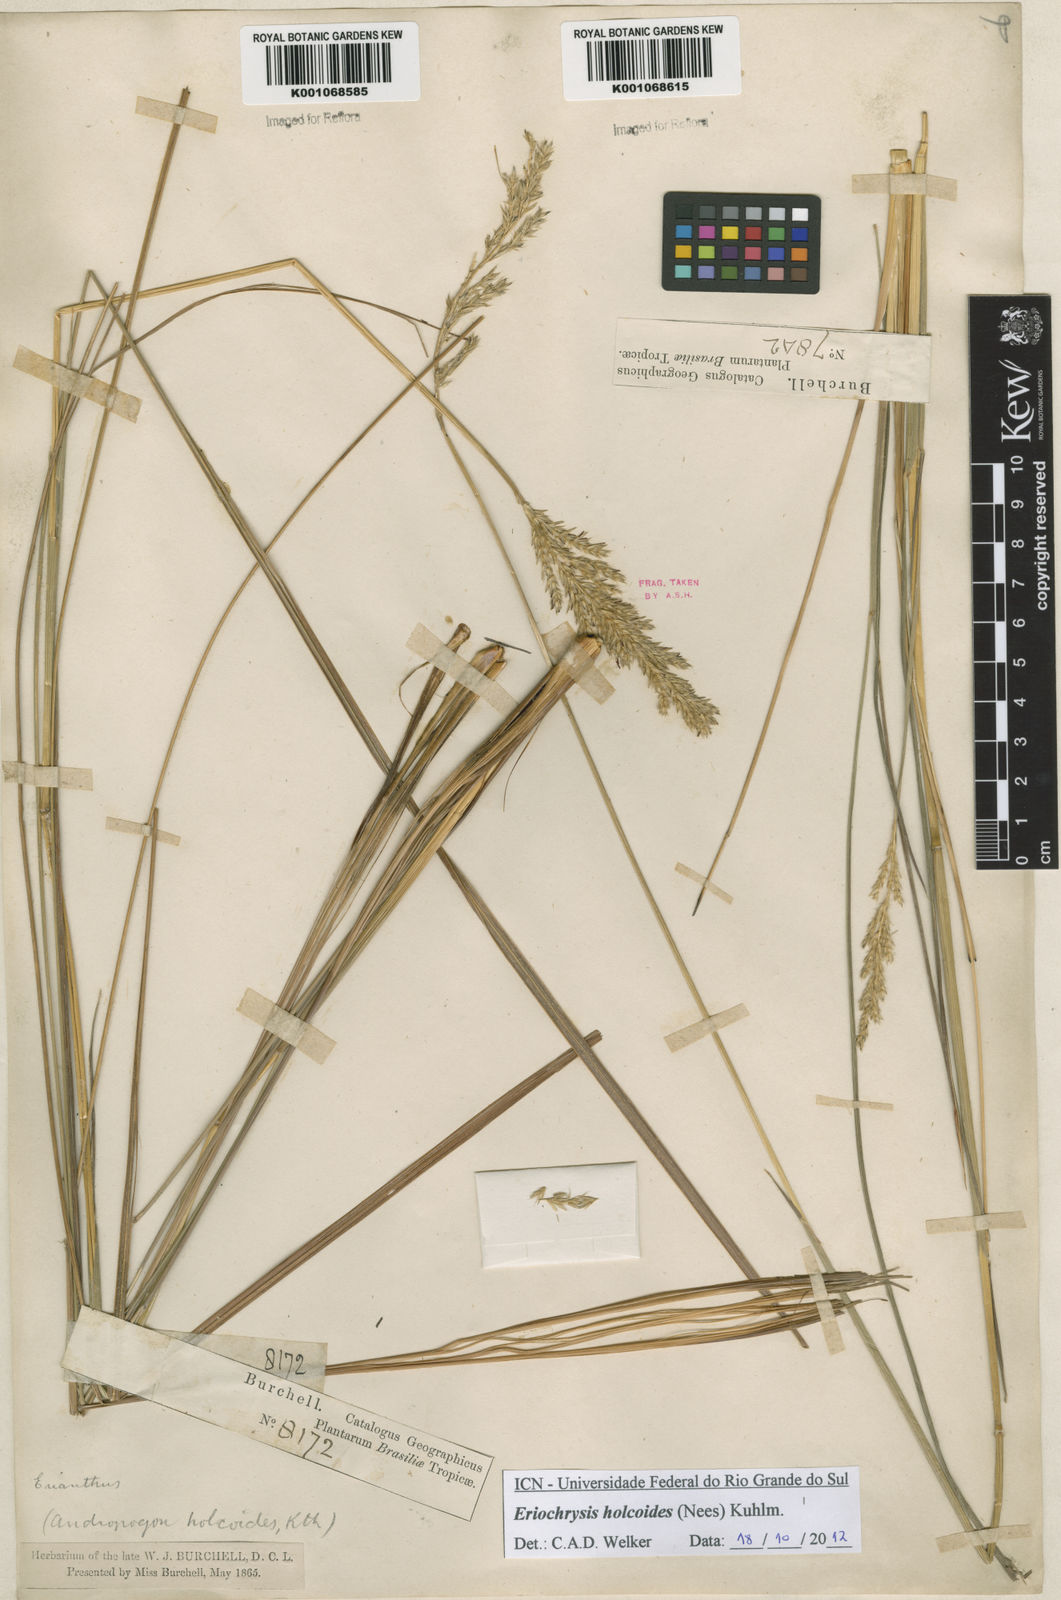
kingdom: Plantae
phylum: Tracheophyta
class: Liliopsida
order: Poales
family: Poaceae
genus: Eriochrysis
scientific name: Eriochrysis holcoides
